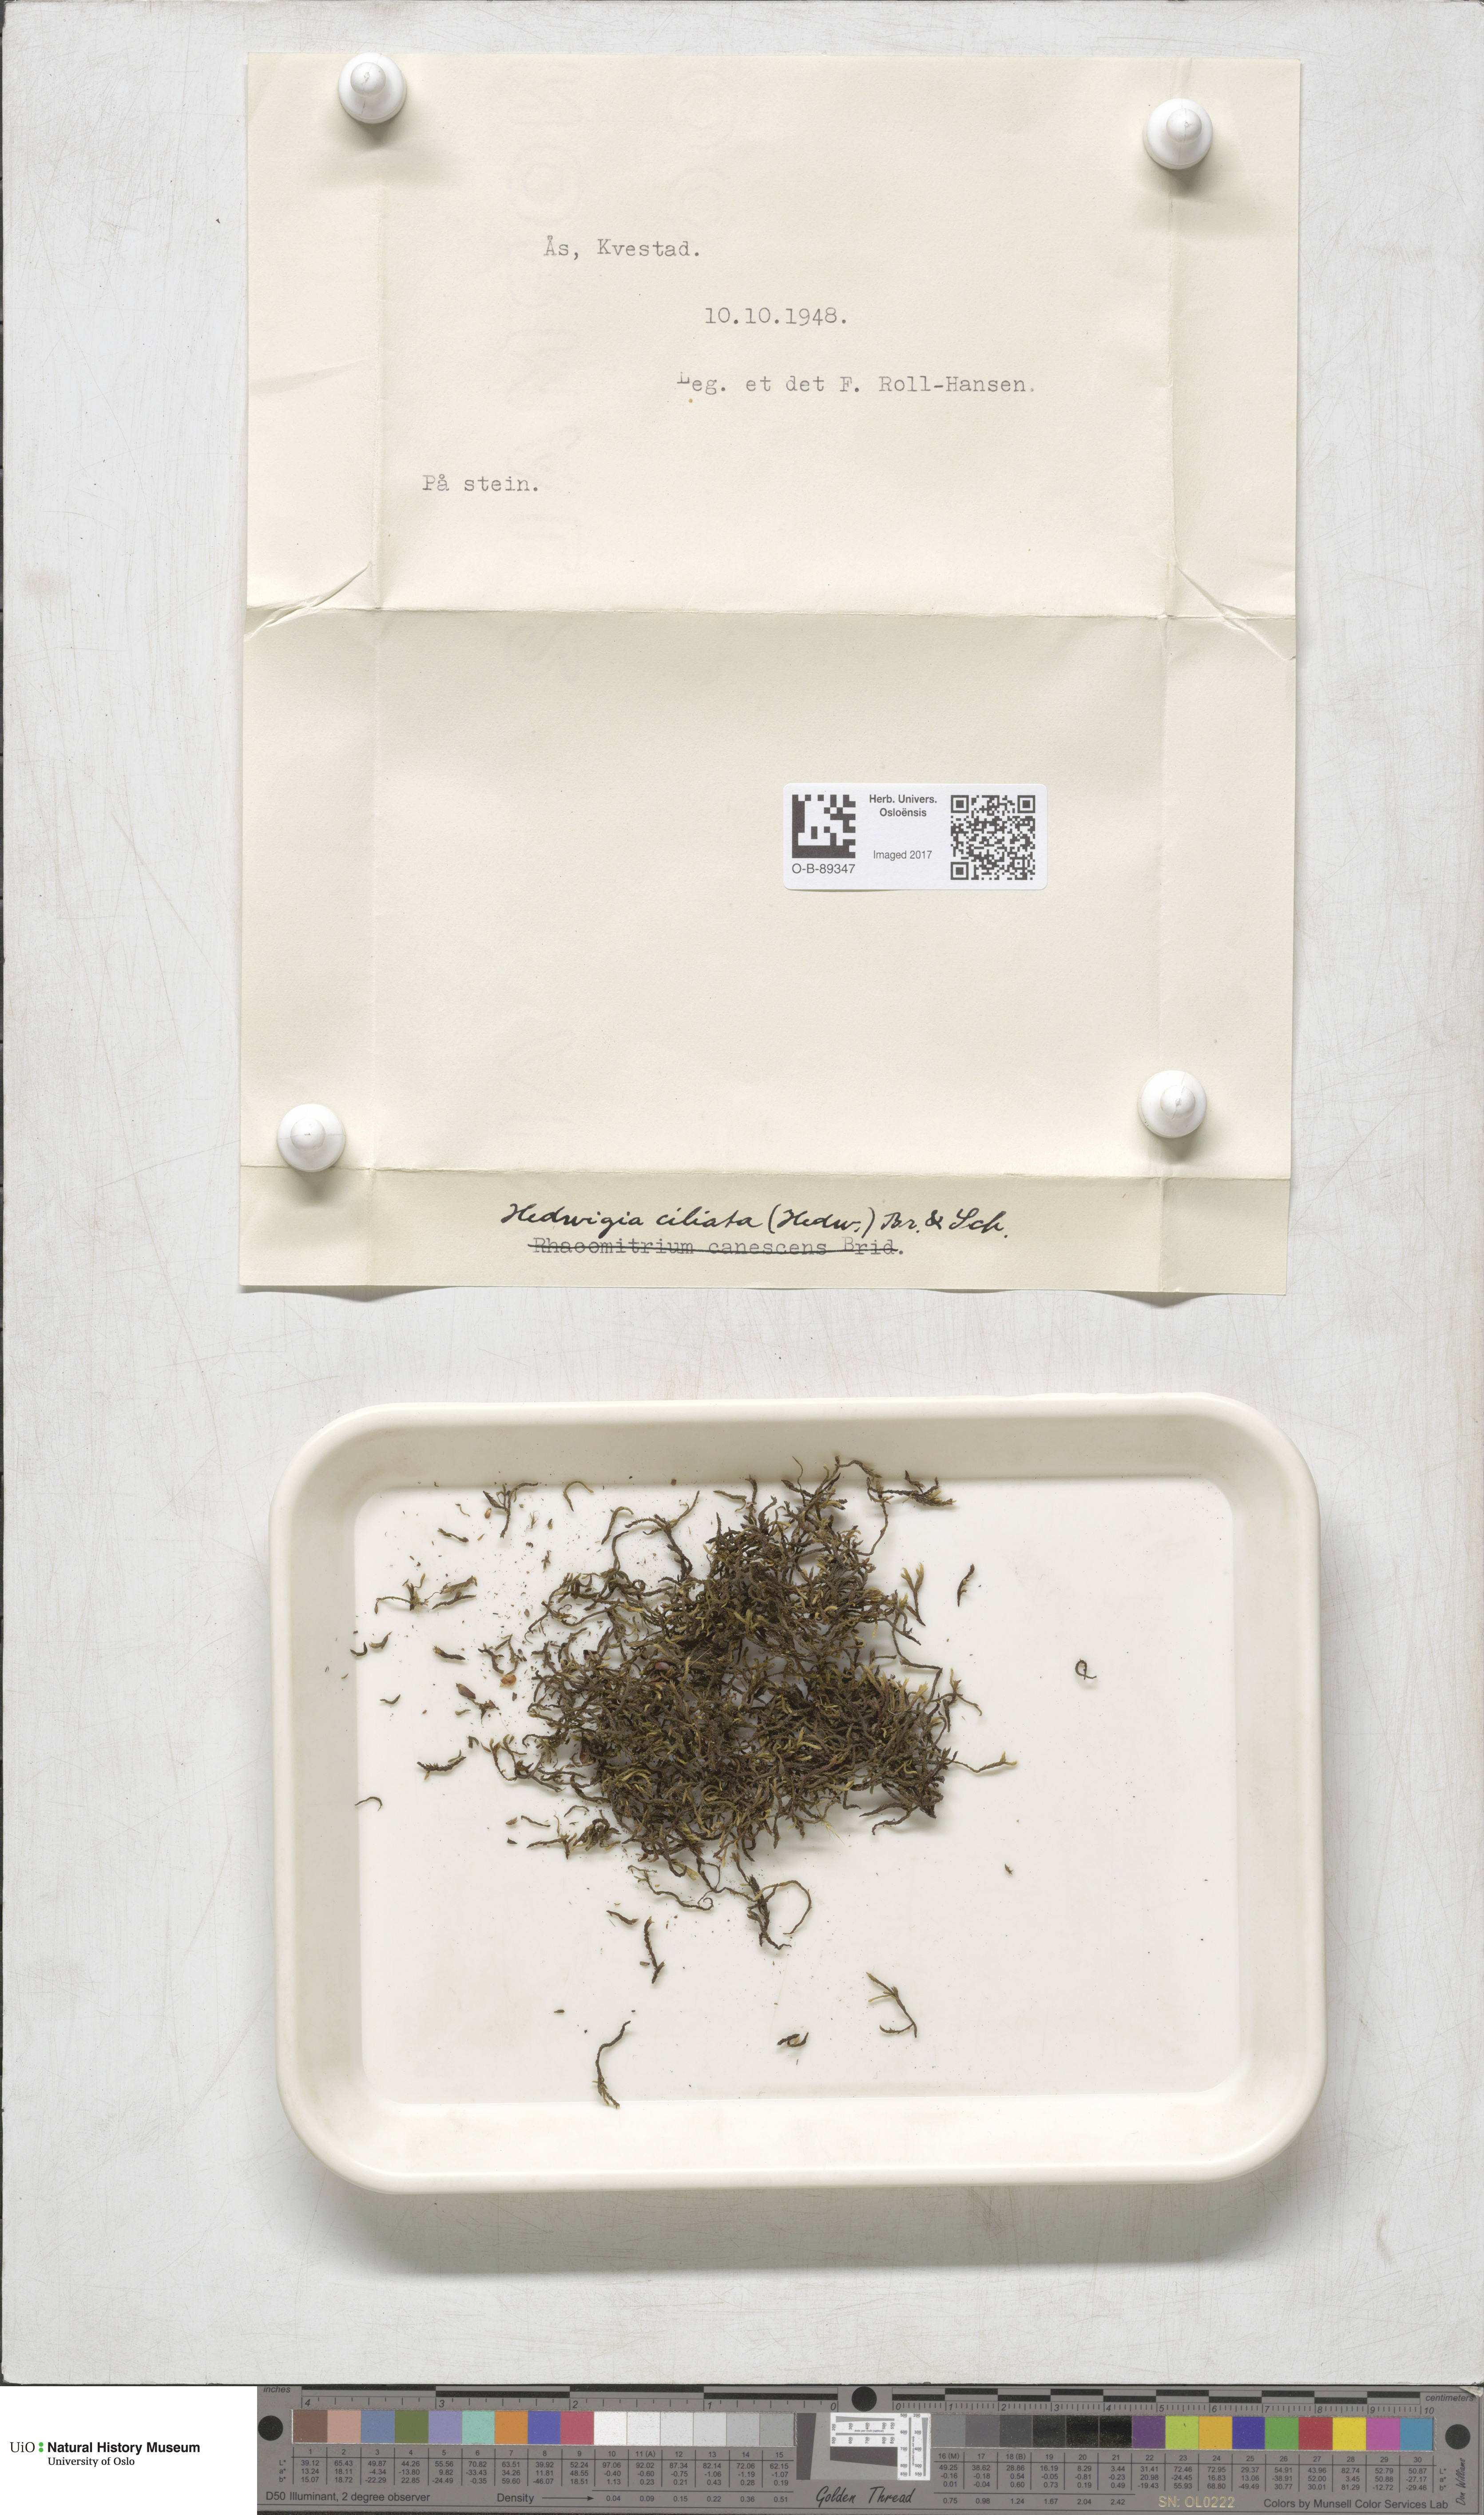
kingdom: Plantae
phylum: Bryophyta
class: Bryopsida
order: Hedwigiales
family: Hedwigiaceae
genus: Hedwigia
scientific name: Hedwigia ciliata
